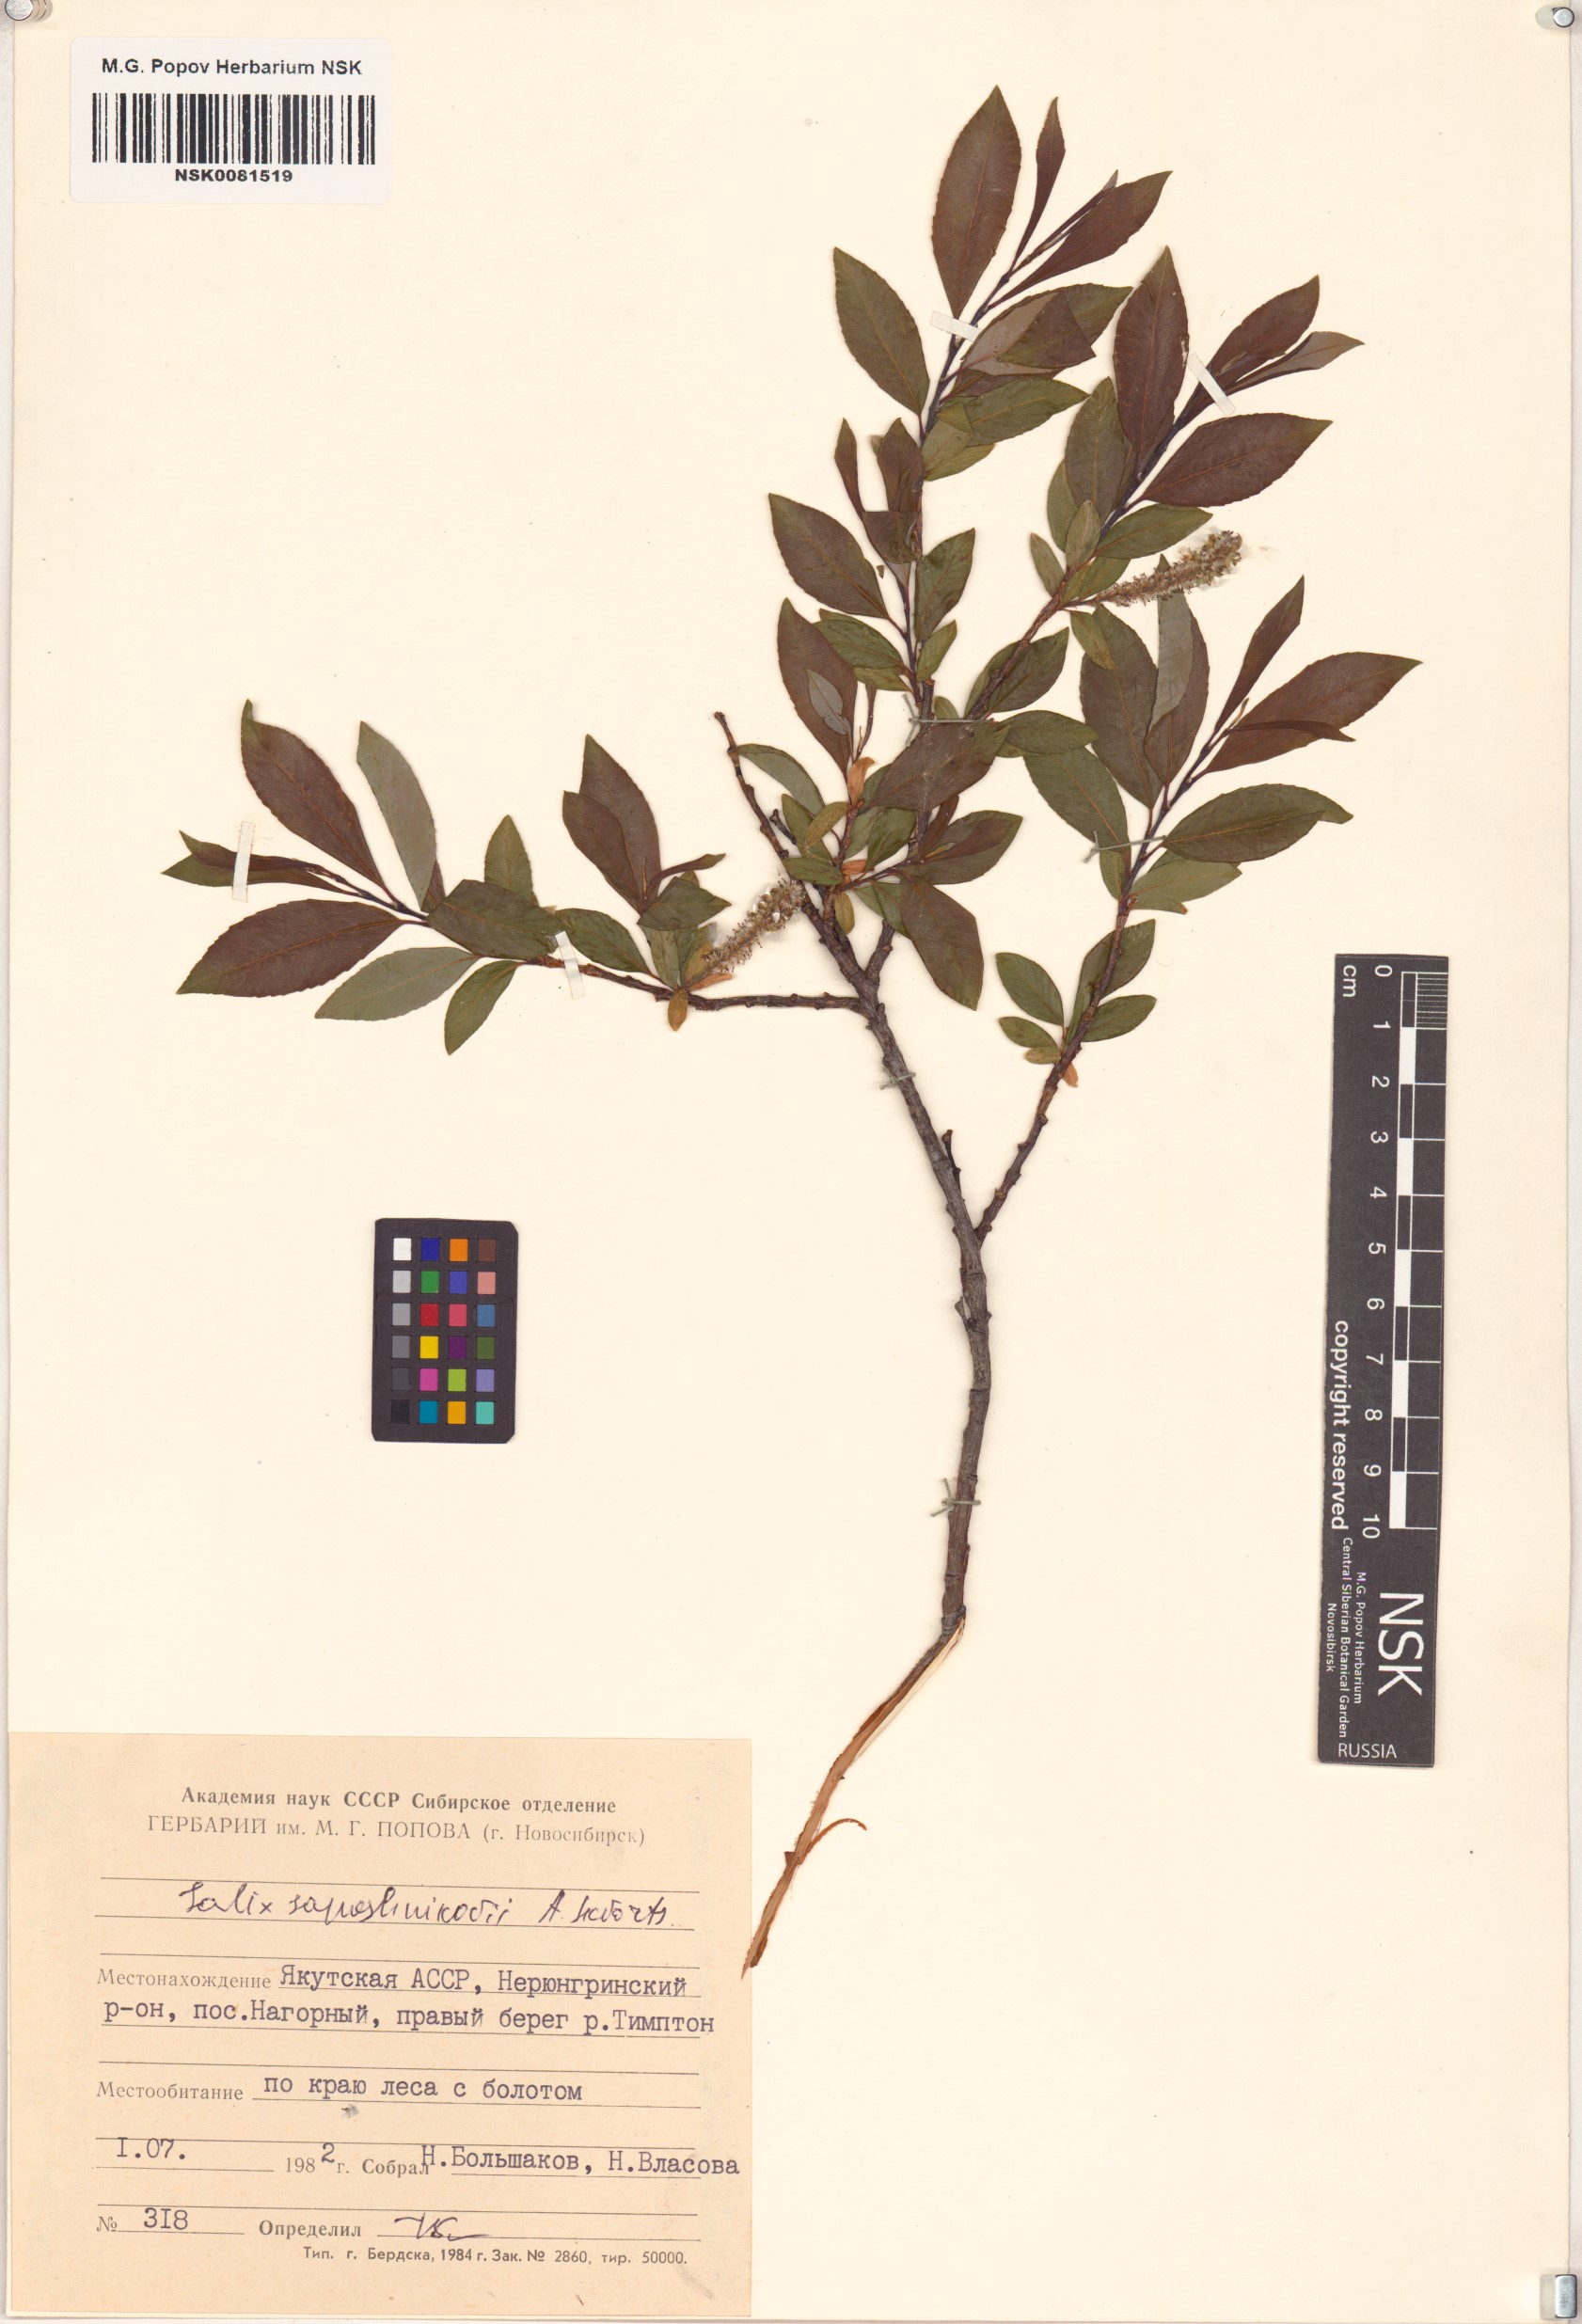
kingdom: Plantae
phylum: Tracheophyta
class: Magnoliopsida
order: Malpighiales
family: Salicaceae
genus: Salix
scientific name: Salix saposhnikovii
